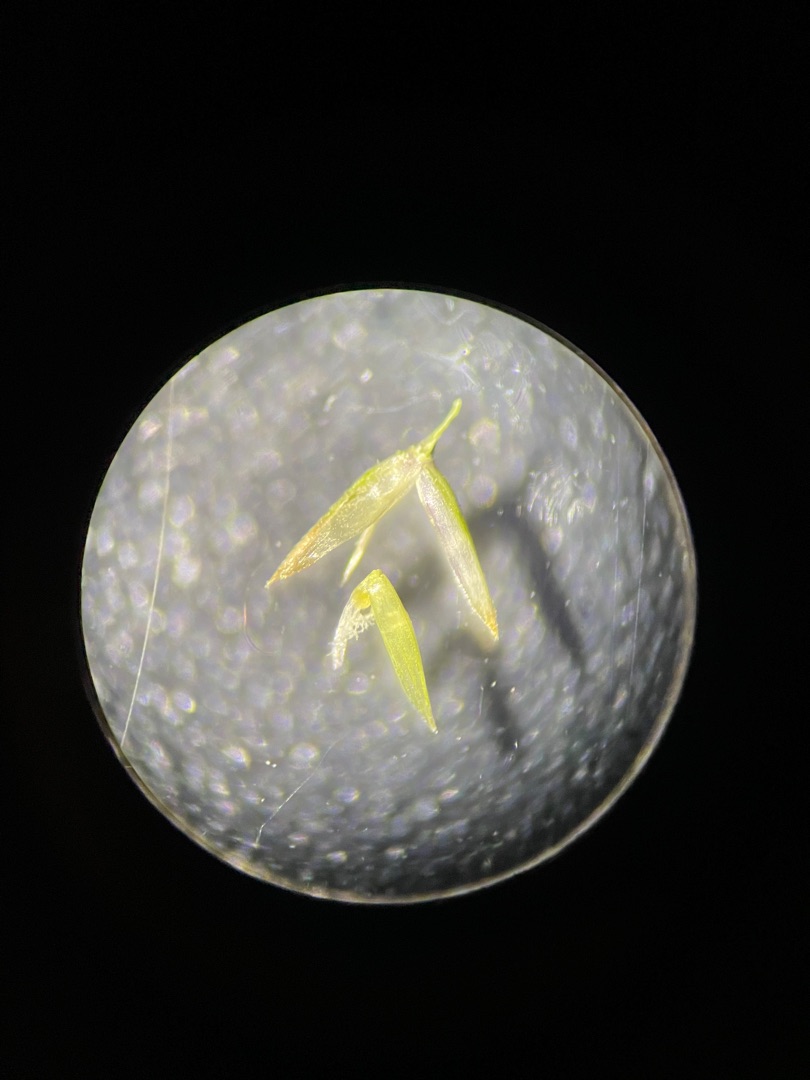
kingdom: Plantae
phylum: Tracheophyta
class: Liliopsida
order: Poales
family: Poaceae
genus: Agrostis
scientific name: Agrostis stolonifera
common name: Kryb-hvene
